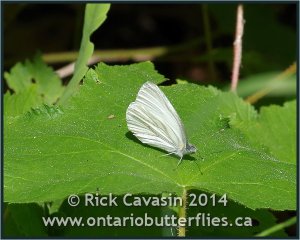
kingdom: Animalia
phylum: Arthropoda
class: Insecta
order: Lepidoptera
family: Pieridae
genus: Pieris
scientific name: Pieris oleracea
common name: Mustard White
